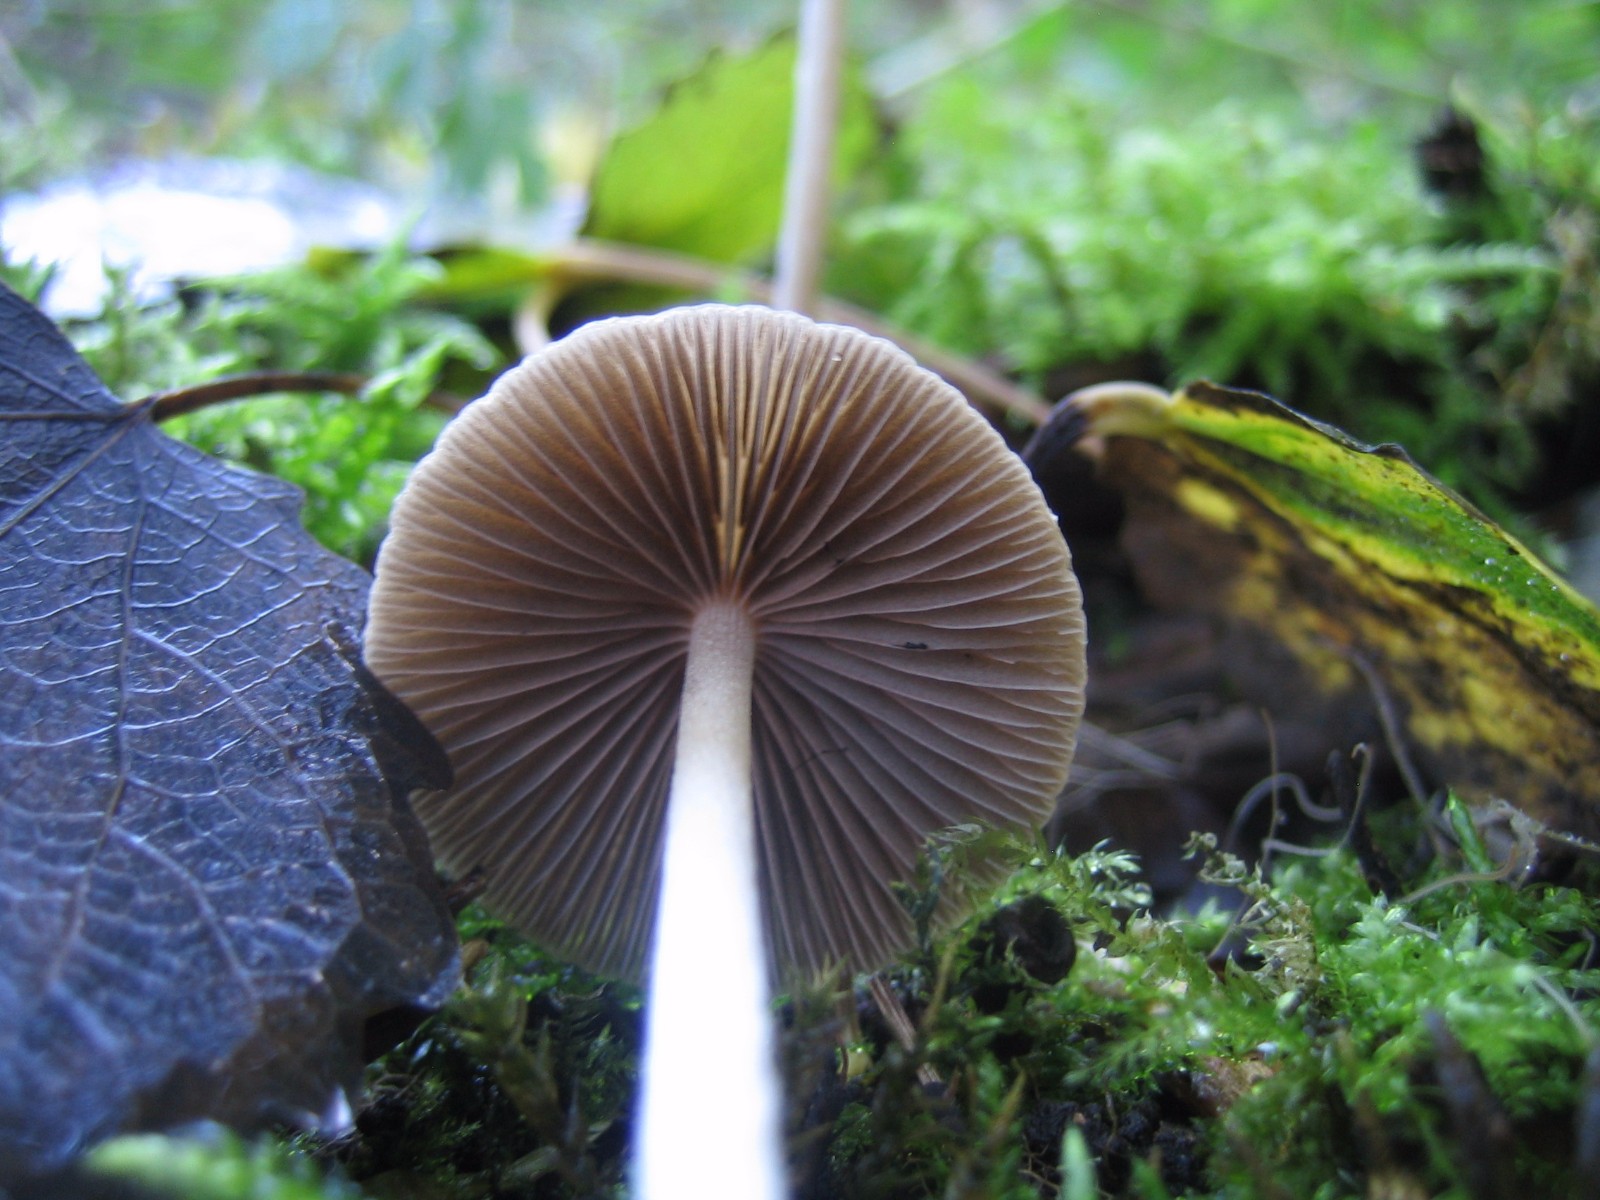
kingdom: Fungi
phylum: Basidiomycota
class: Agaricomycetes
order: Agaricales
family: Strophariaceae
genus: Hypholoma
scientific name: Hypholoma marginatum
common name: enlig svovlhat
